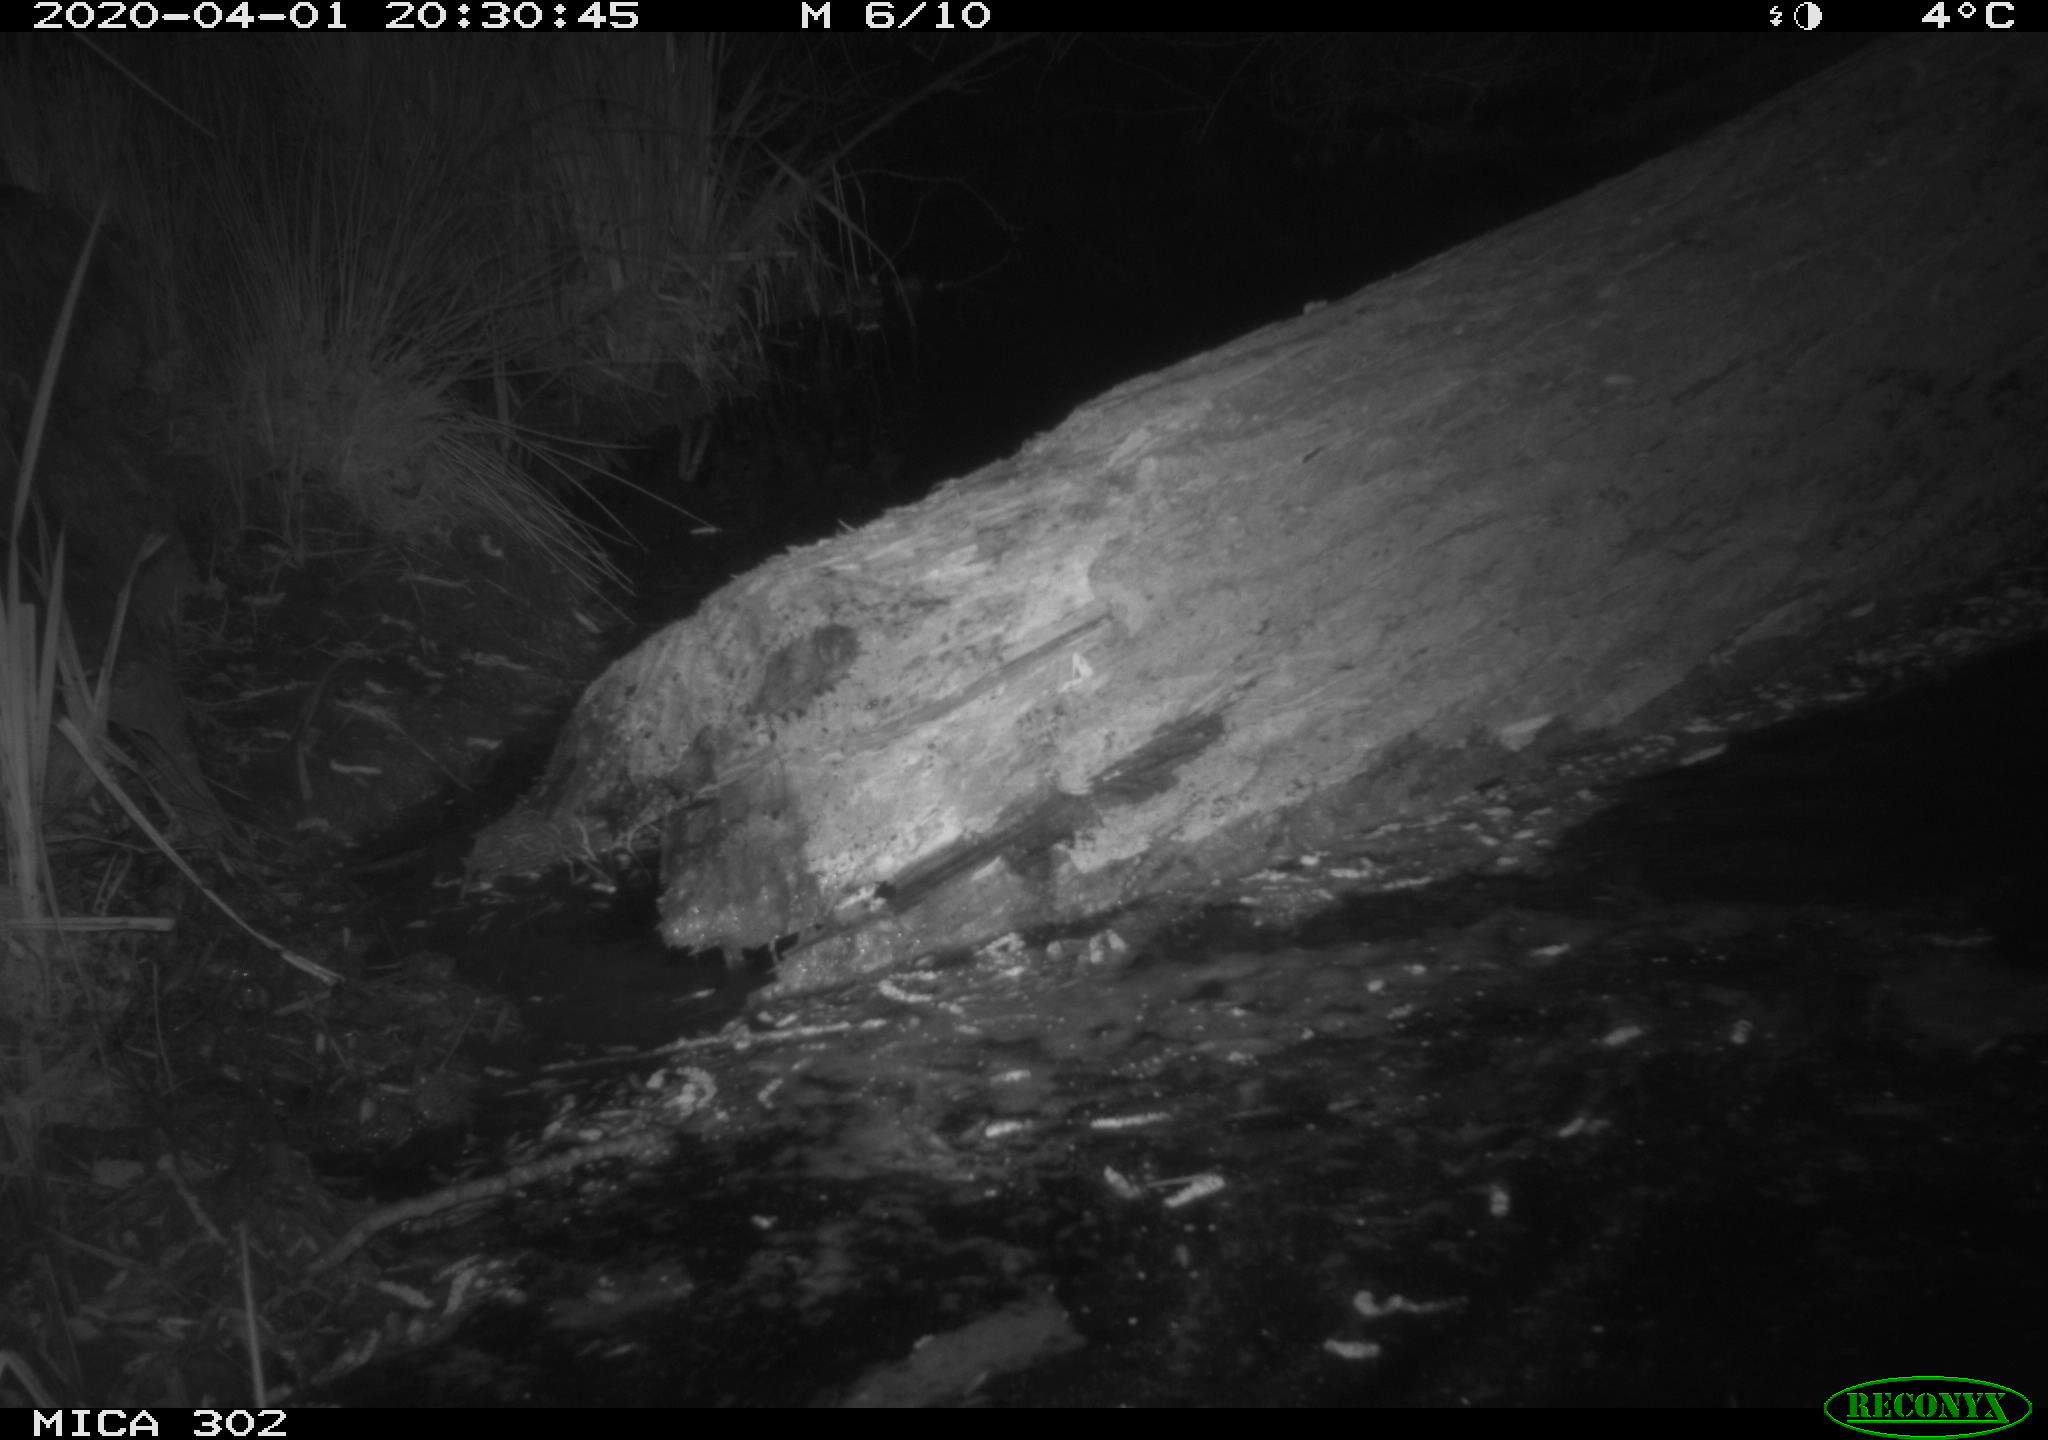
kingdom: Animalia
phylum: Chordata
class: Mammalia
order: Artiodactyla
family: Cervidae
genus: Capreolus
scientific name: Capreolus capreolus
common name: Western roe deer
